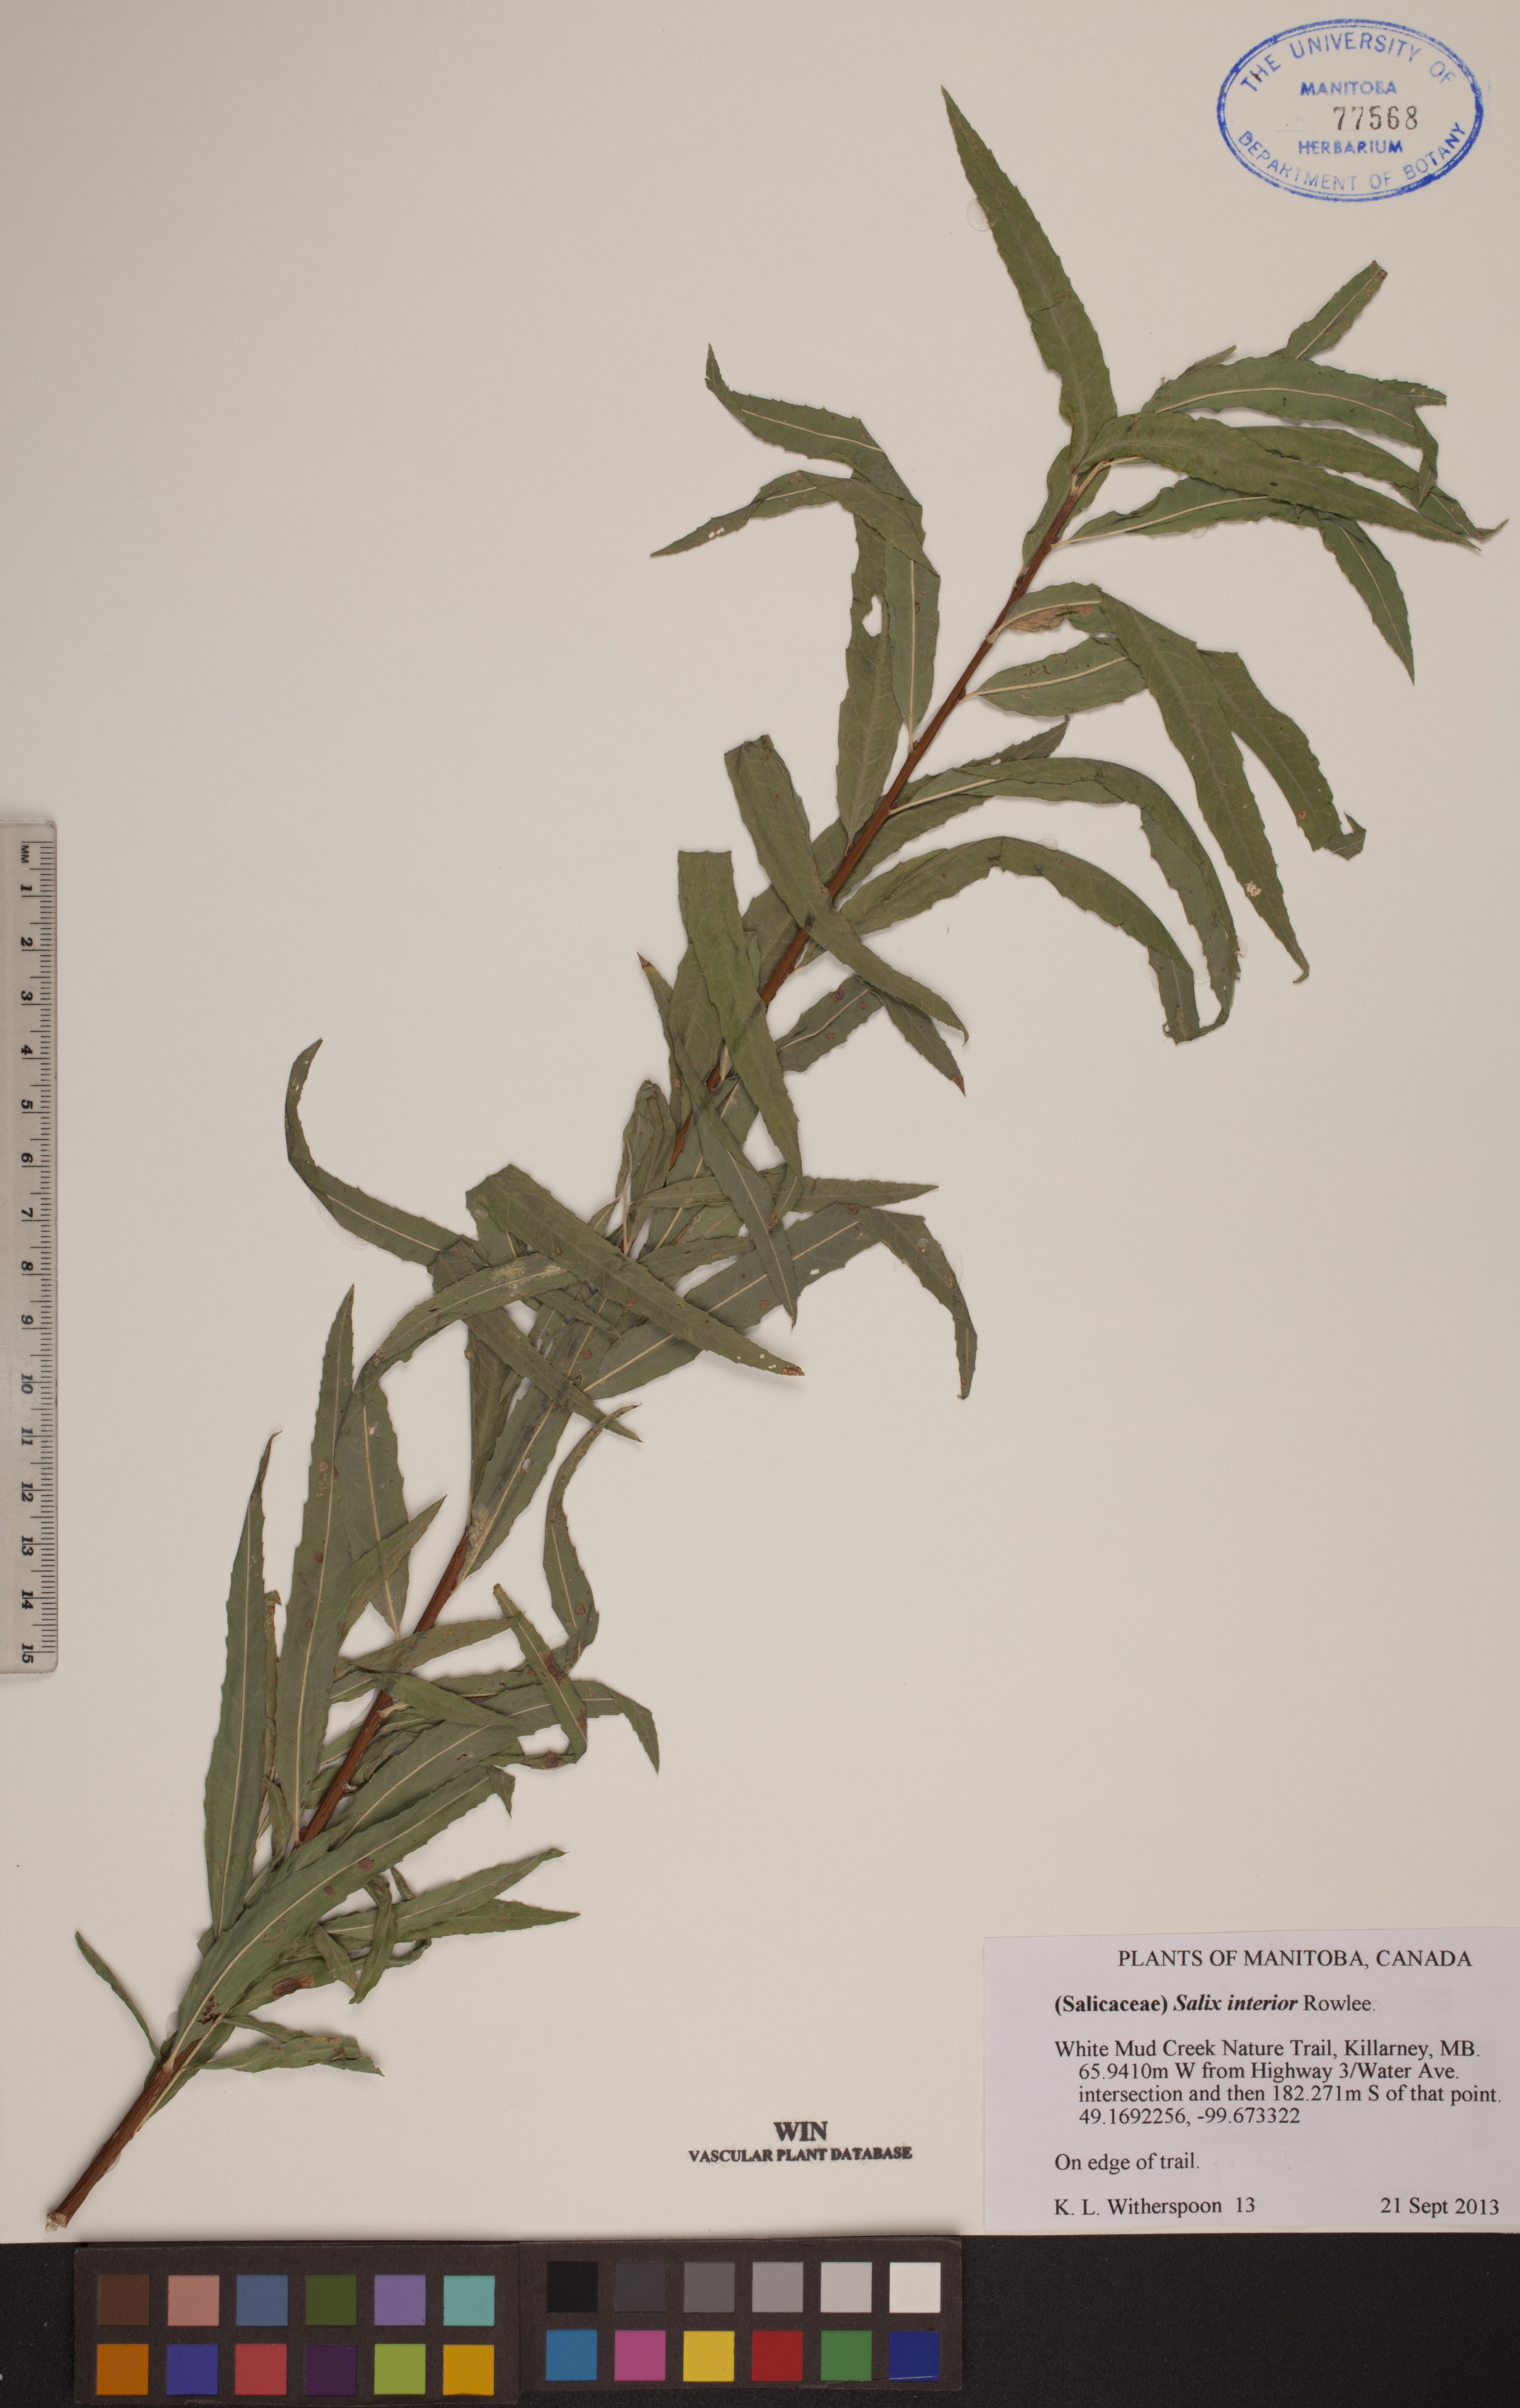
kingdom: Plantae
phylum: Tracheophyta
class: Magnoliopsida
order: Malpighiales
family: Salicaceae
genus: Salix
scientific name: Salix interior
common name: Sandbar willow
